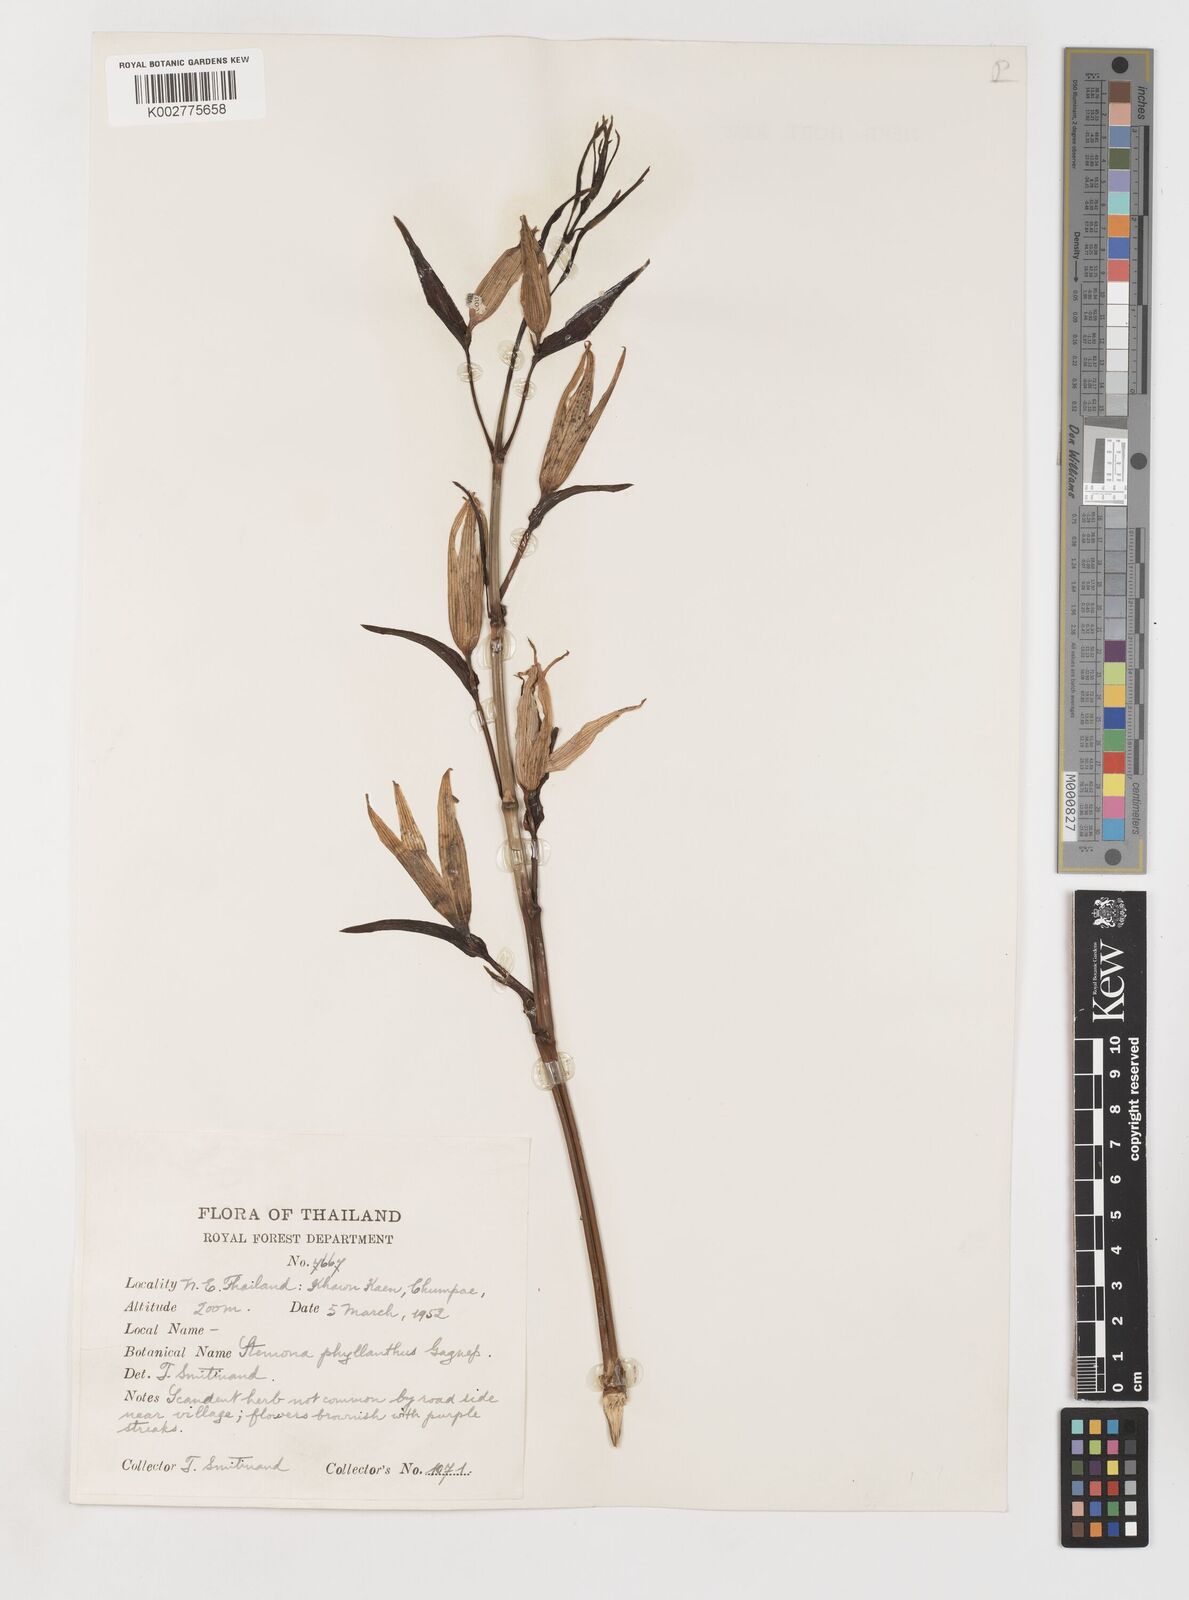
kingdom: Plantae
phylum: Tracheophyta
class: Liliopsida
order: Pandanales
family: Stemonaceae
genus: Stemona
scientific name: Stemona phyllantha
